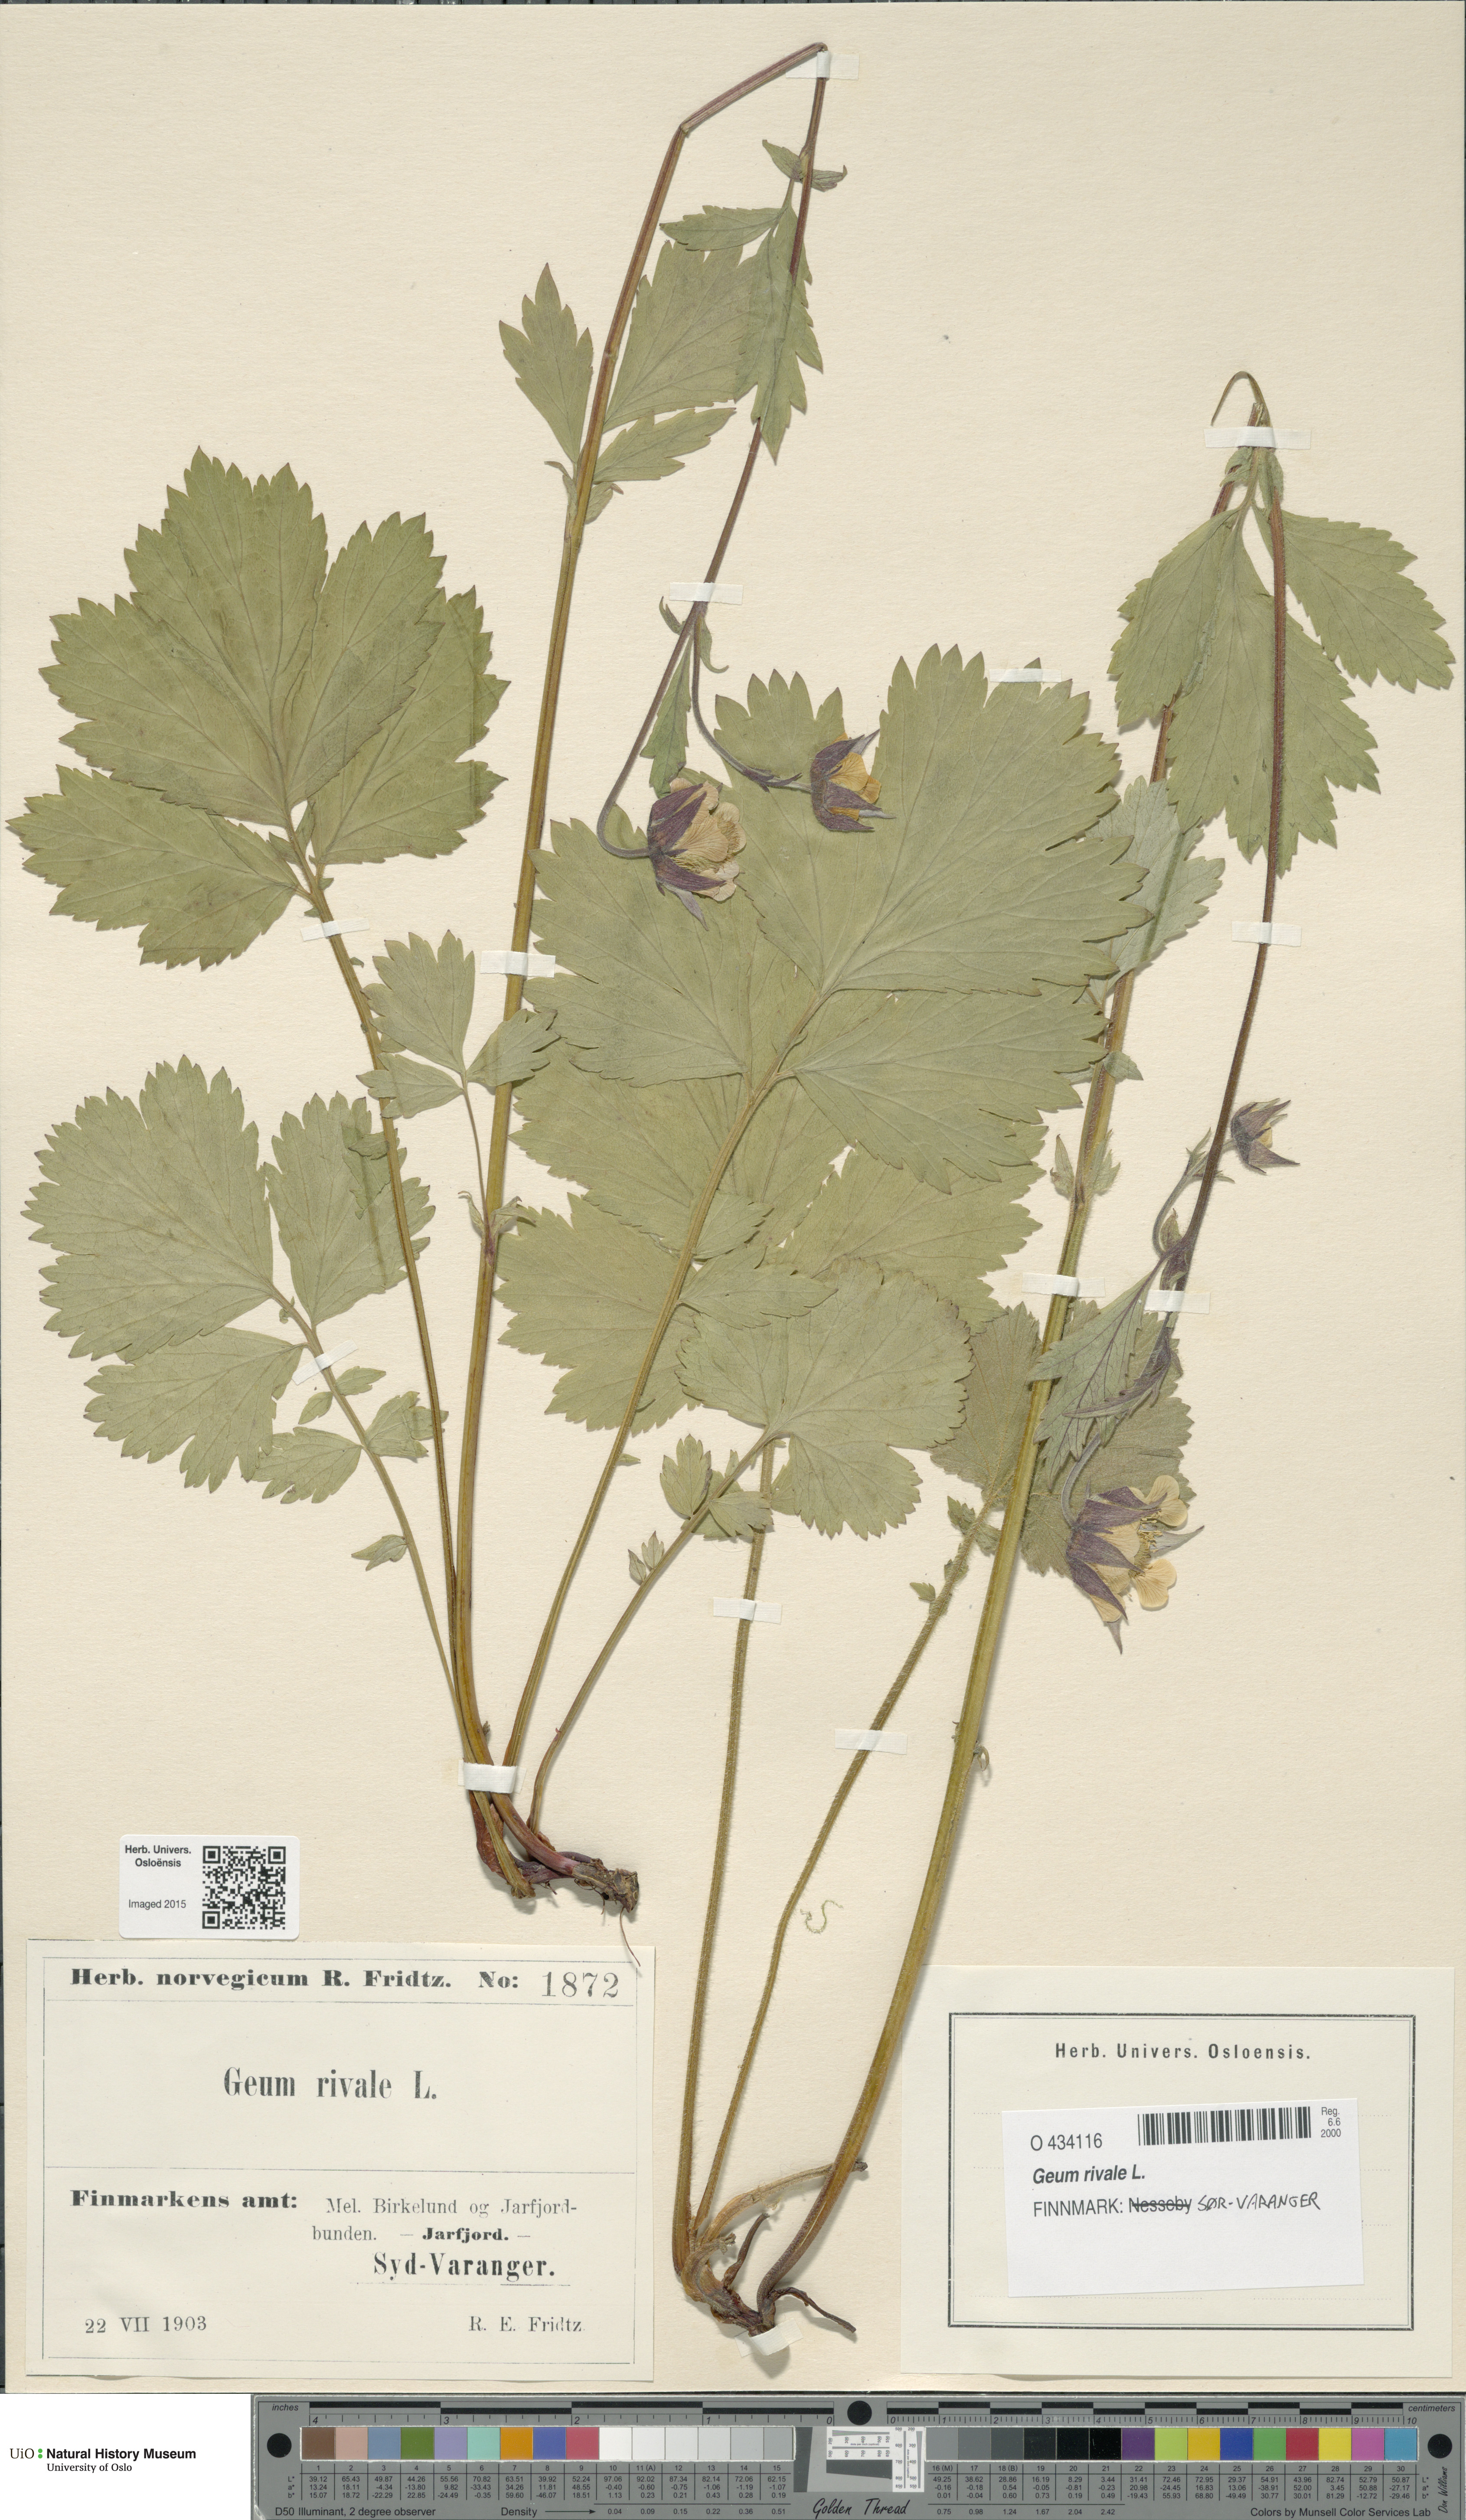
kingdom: Plantae
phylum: Tracheophyta
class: Magnoliopsida
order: Rosales
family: Rosaceae
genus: Geum
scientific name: Geum rivale
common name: Water avens
